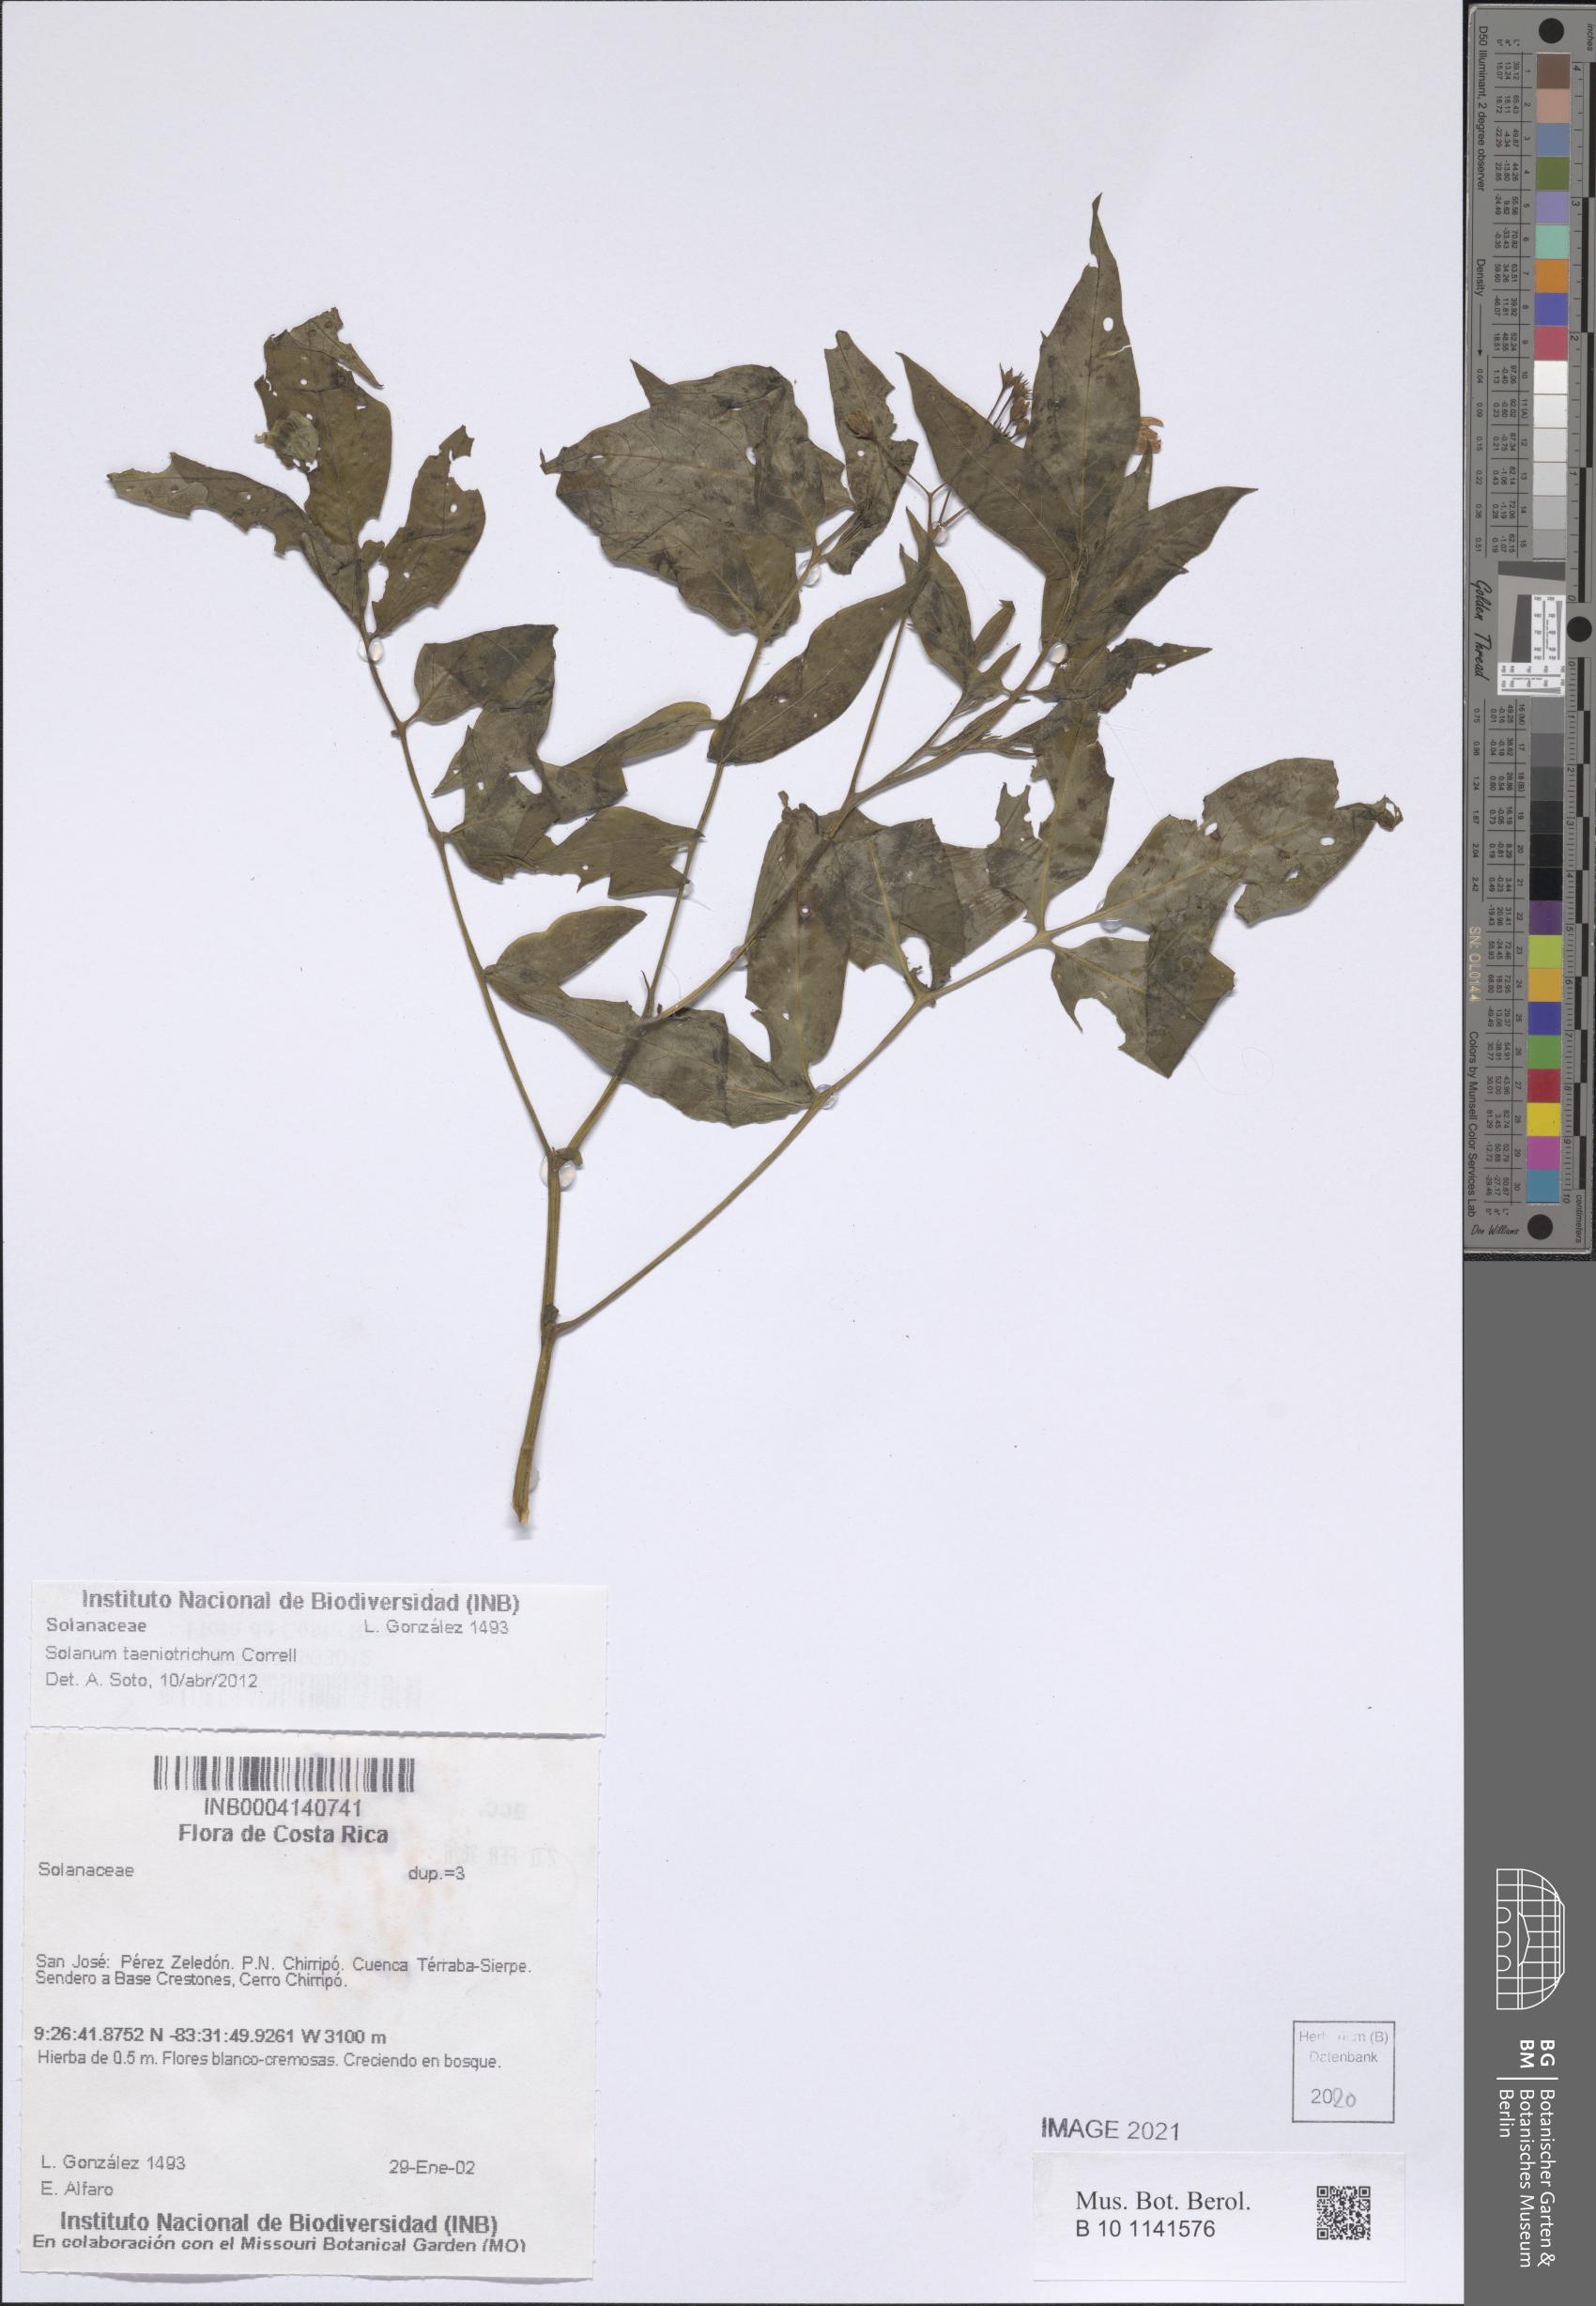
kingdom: Plantae
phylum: Tracheophyta
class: Magnoliopsida
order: Solanales
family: Solanaceae
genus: Solanum
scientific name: Solanum taeniotrichum
